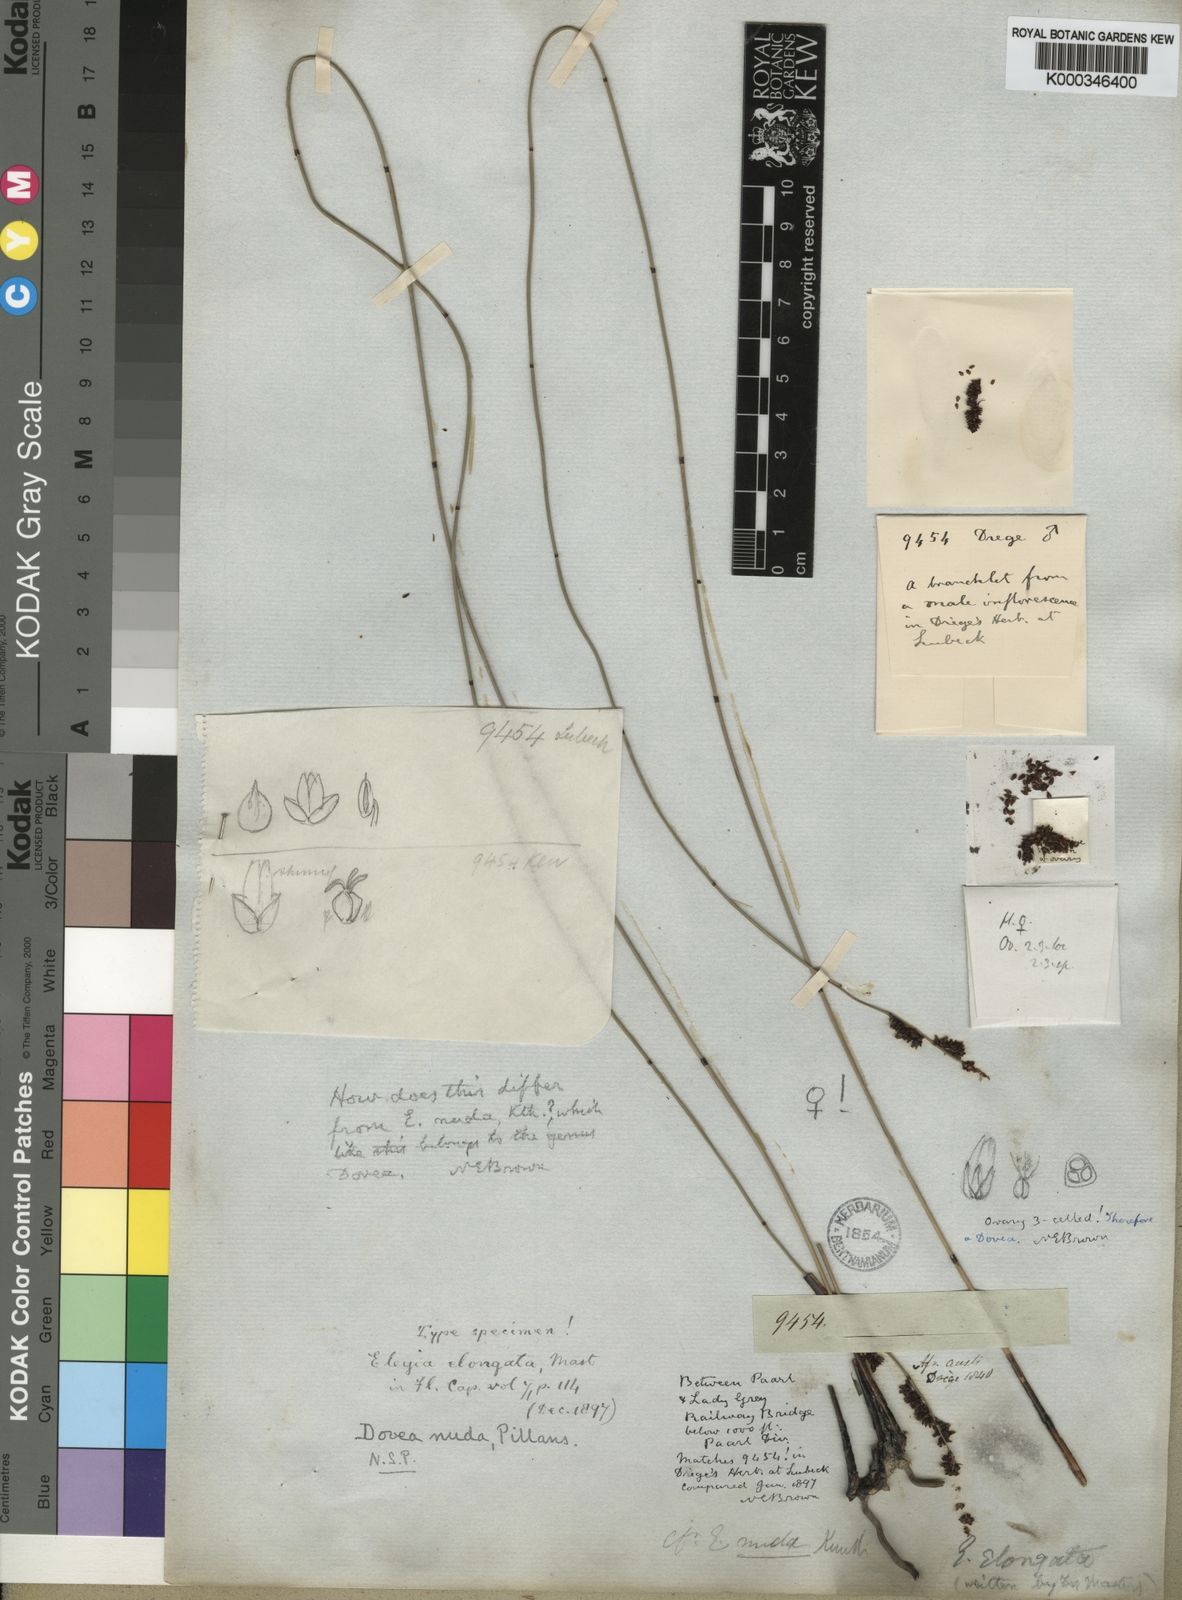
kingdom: Plantae
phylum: Tracheophyta
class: Liliopsida
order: Poales
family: Restionaceae
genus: Elegia
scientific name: Elegia nuda
